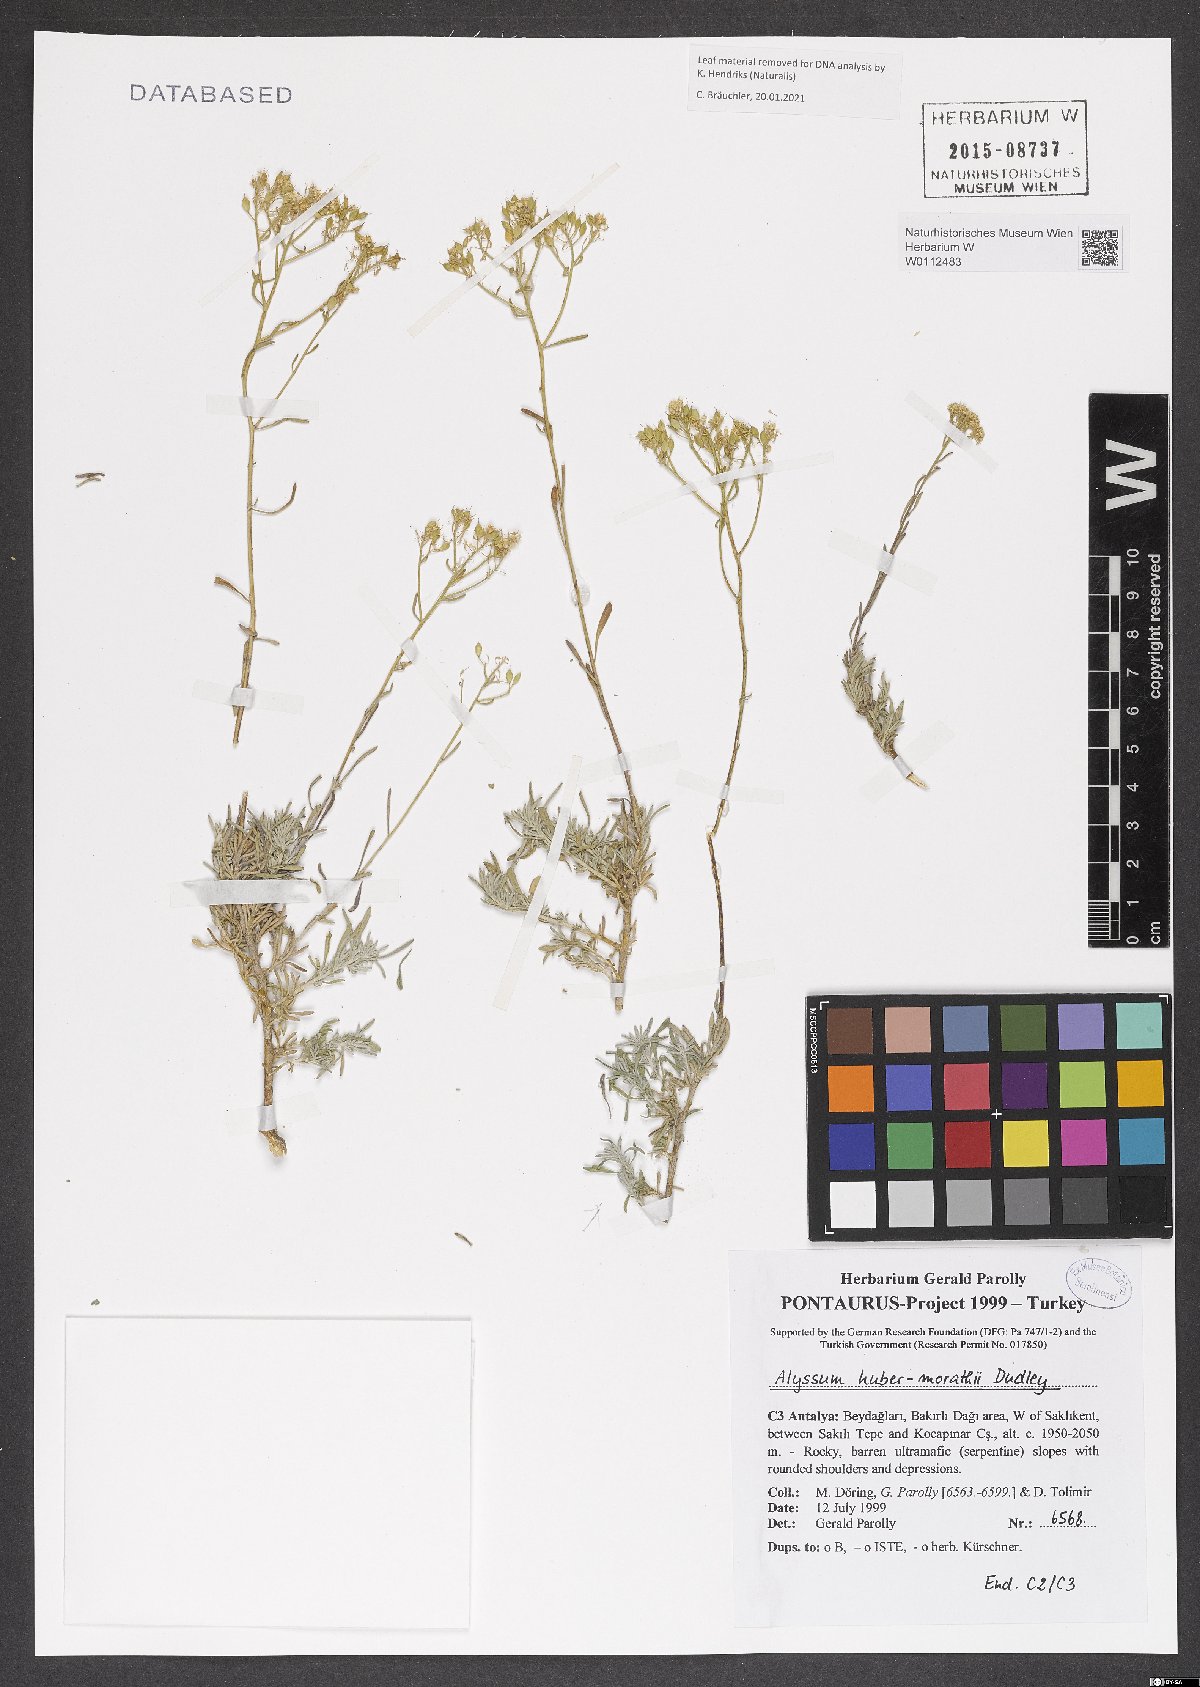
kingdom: Plantae
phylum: Tracheophyta
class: Magnoliopsida
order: Brassicales
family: Brassicaceae
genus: Odontarrhena
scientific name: Odontarrhena huber-morathii
